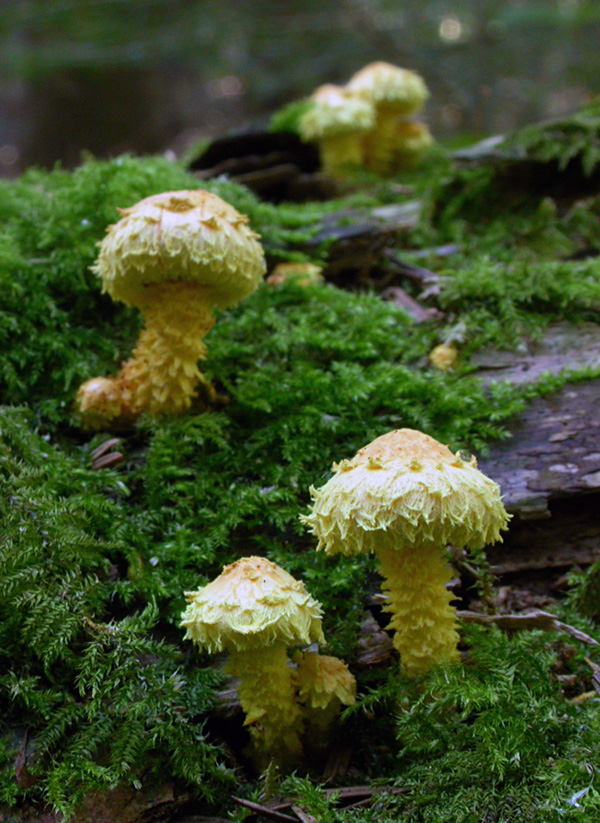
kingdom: Fungi
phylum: Basidiomycota
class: Agaricomycetes
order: Agaricales
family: Strophariaceae
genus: Pholiota
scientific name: Pholiota flammans
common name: flamme-skælhat
